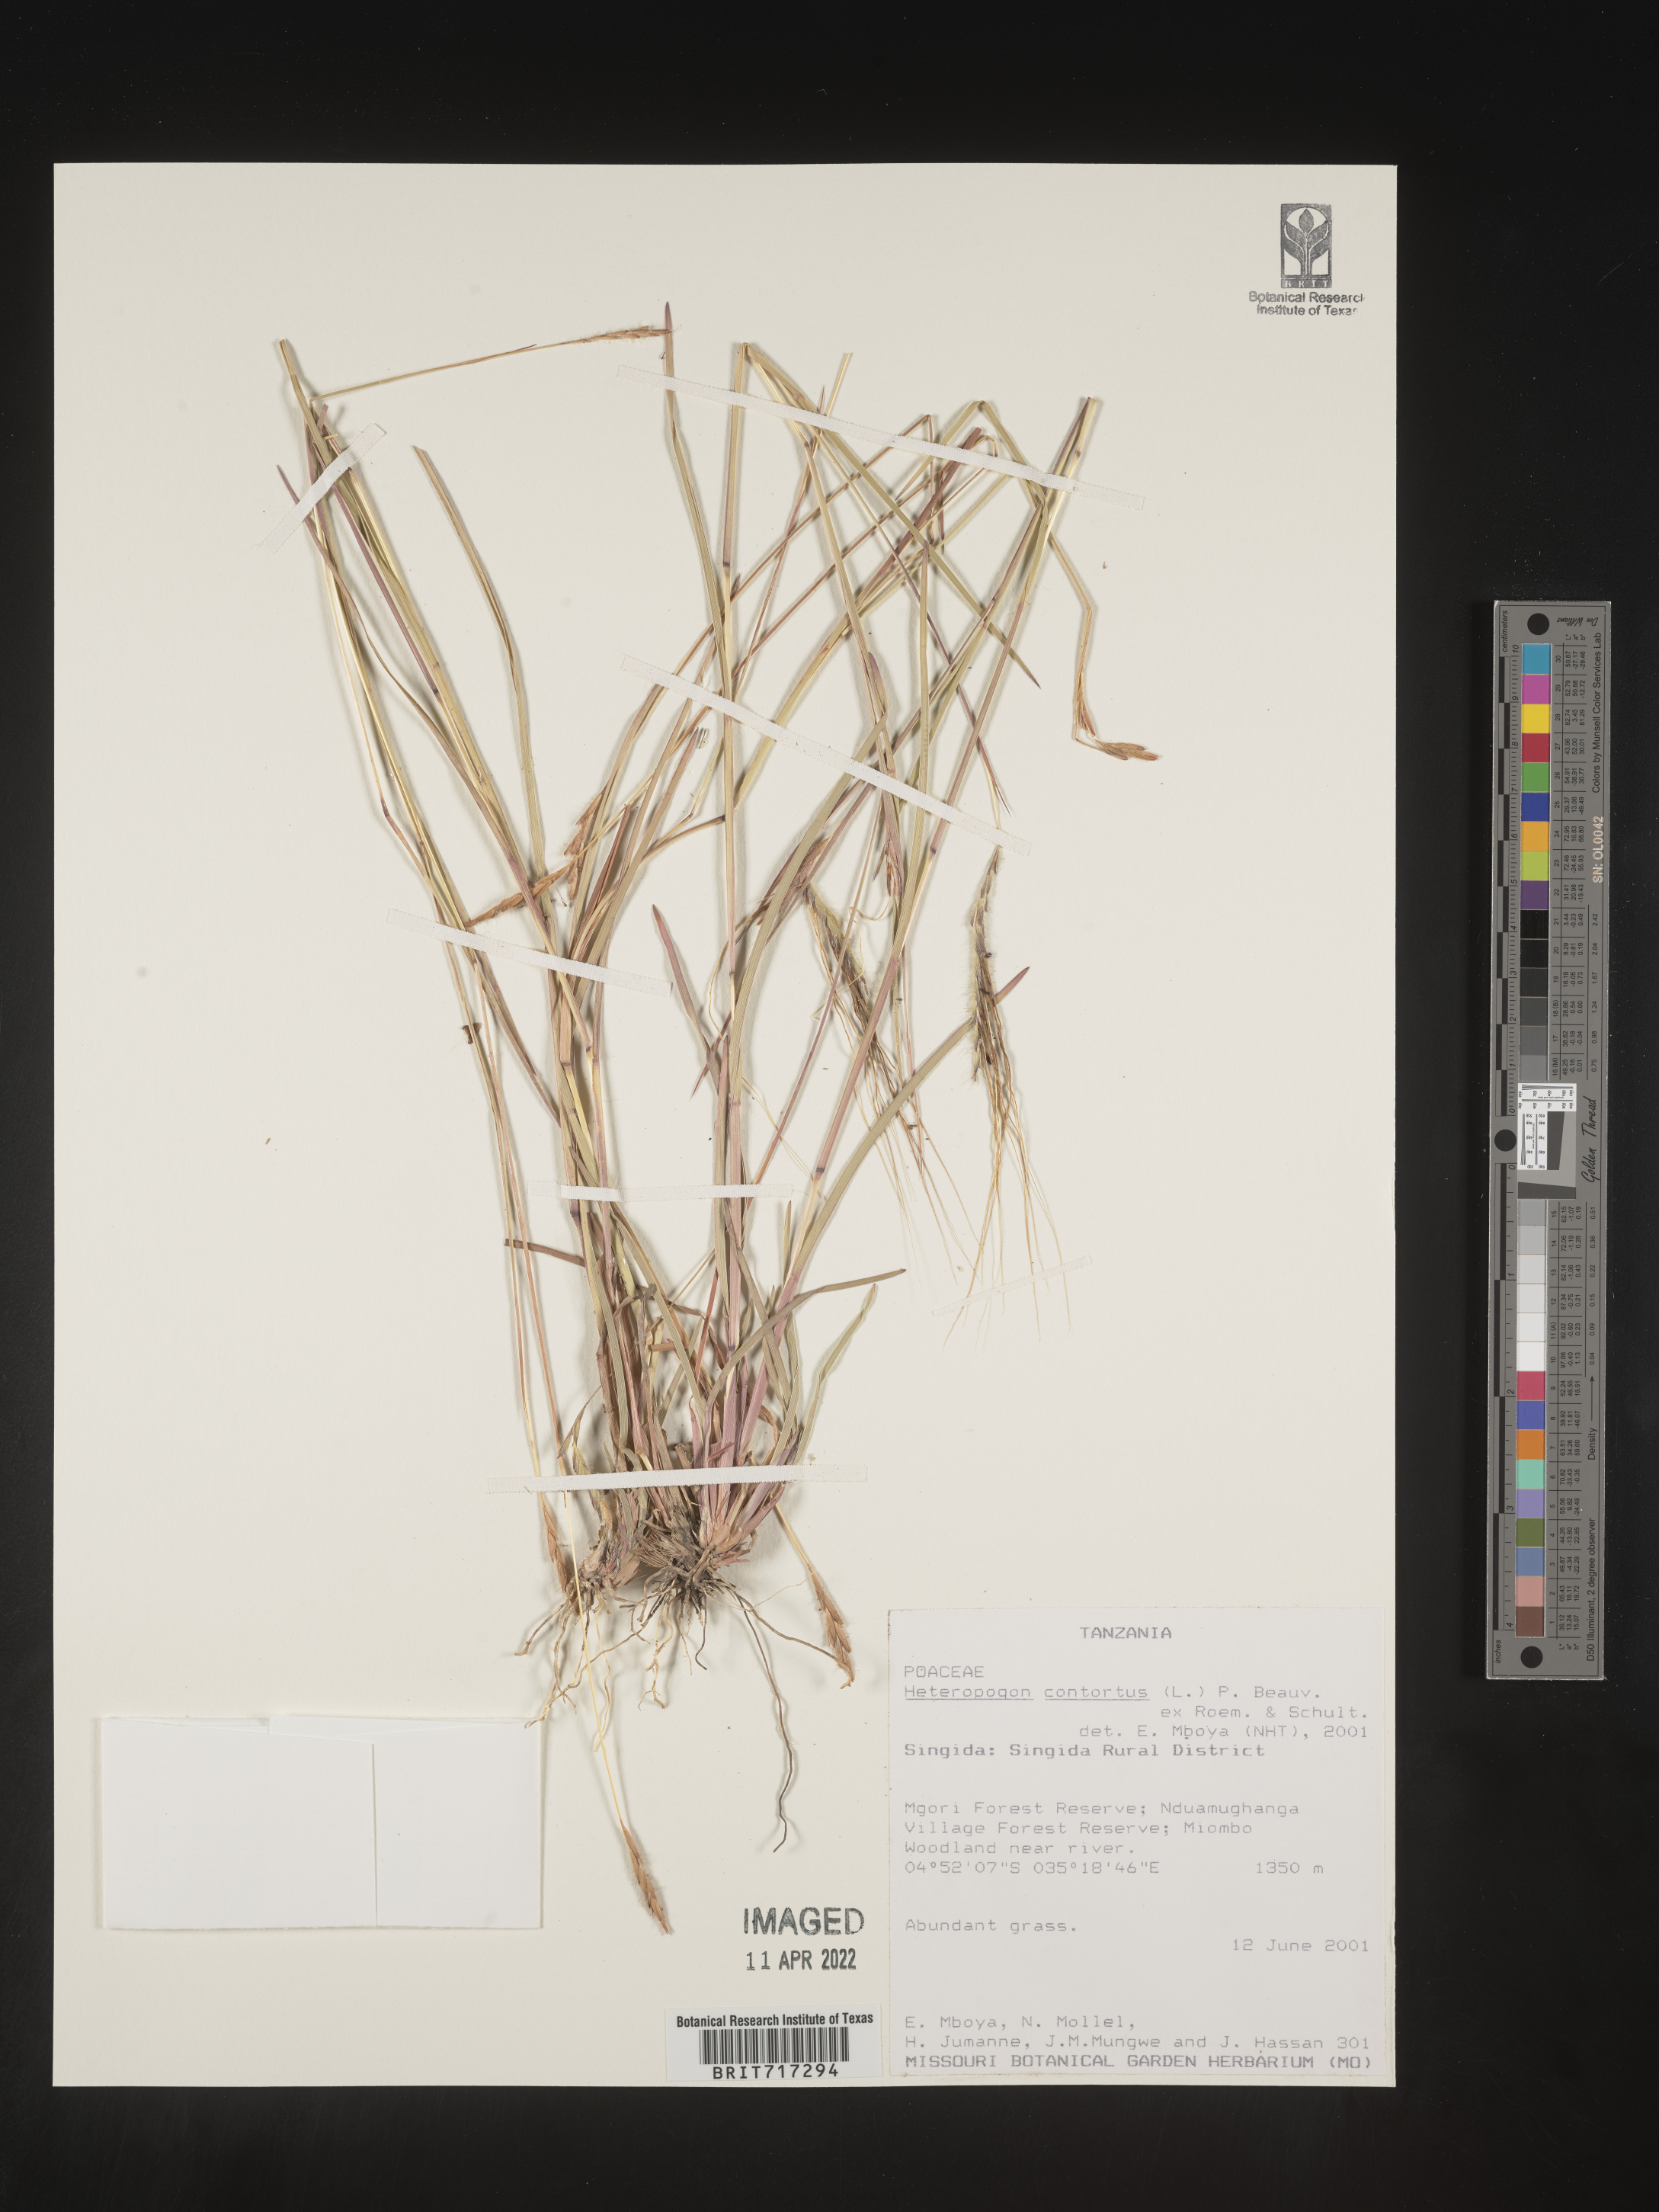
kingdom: Plantae
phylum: Tracheophyta
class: Liliopsida
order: Poales
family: Poaceae
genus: Heteropogon
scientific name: Heteropogon
